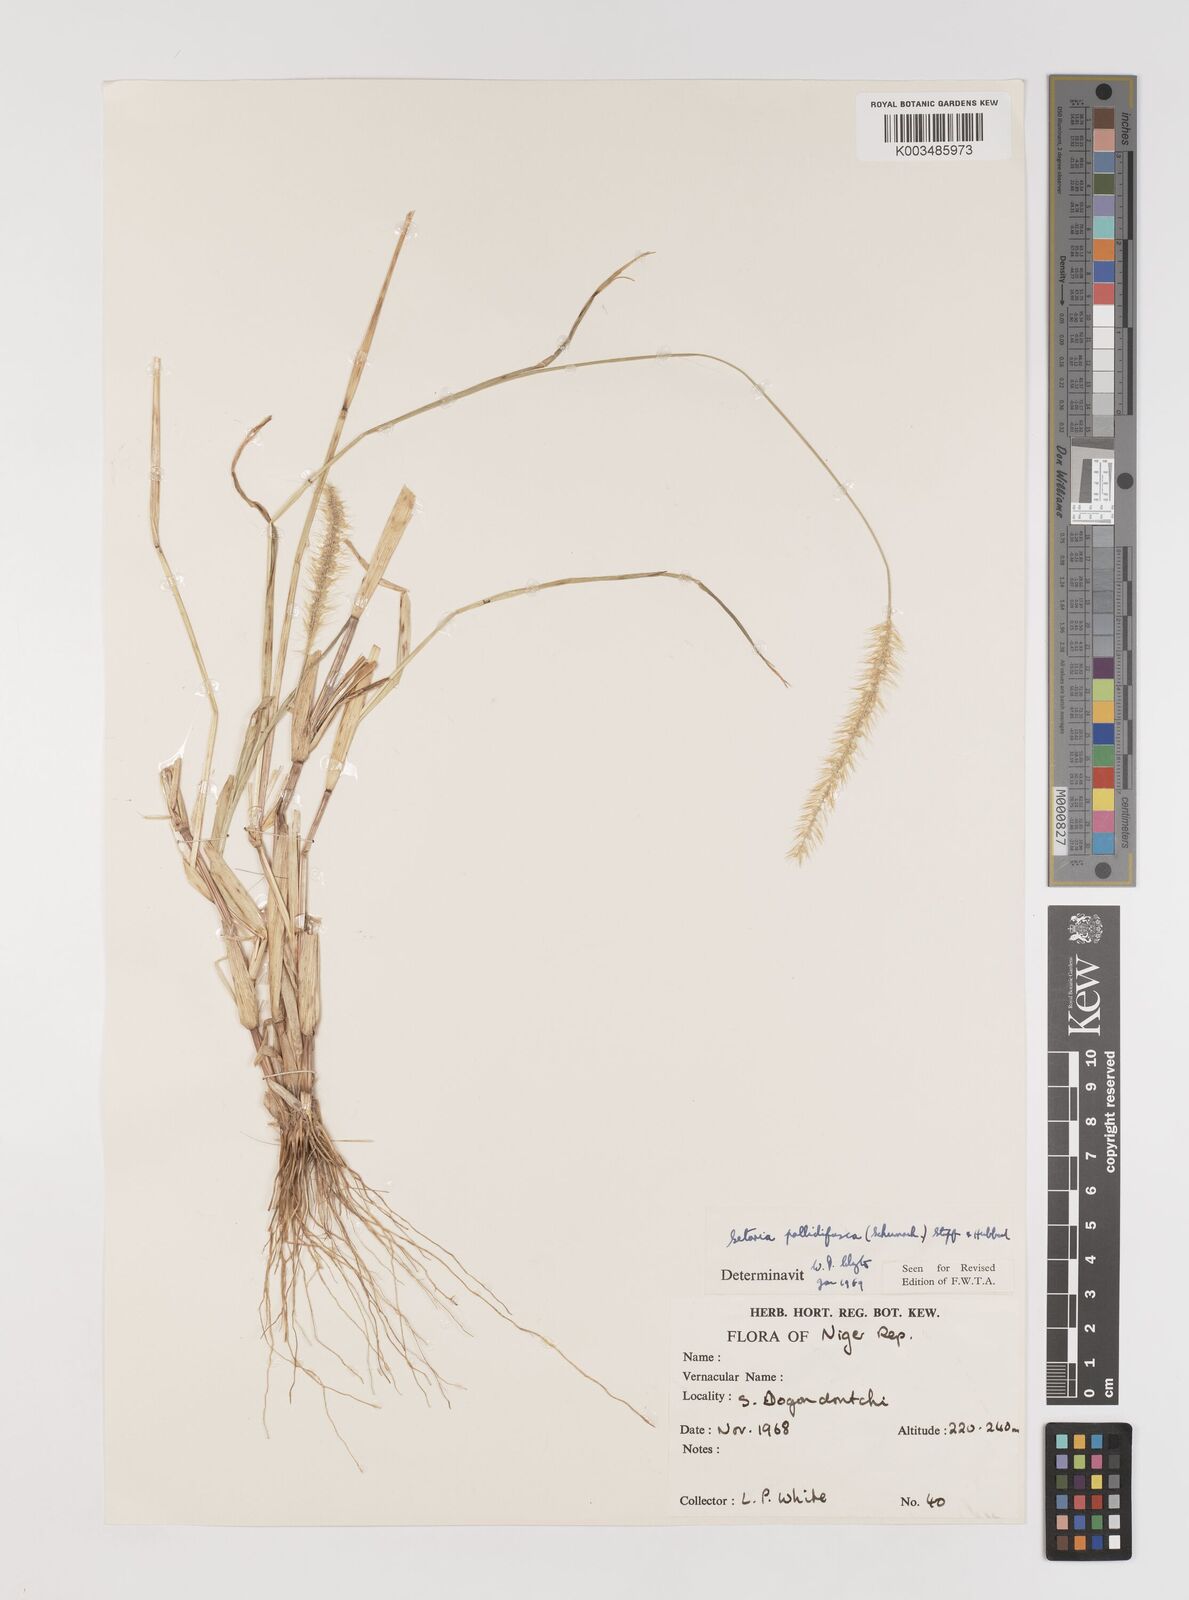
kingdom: Plantae
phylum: Tracheophyta
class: Liliopsida
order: Poales
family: Poaceae
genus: Setaria
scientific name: Setaria pumila
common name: Yellow bristle-grass
